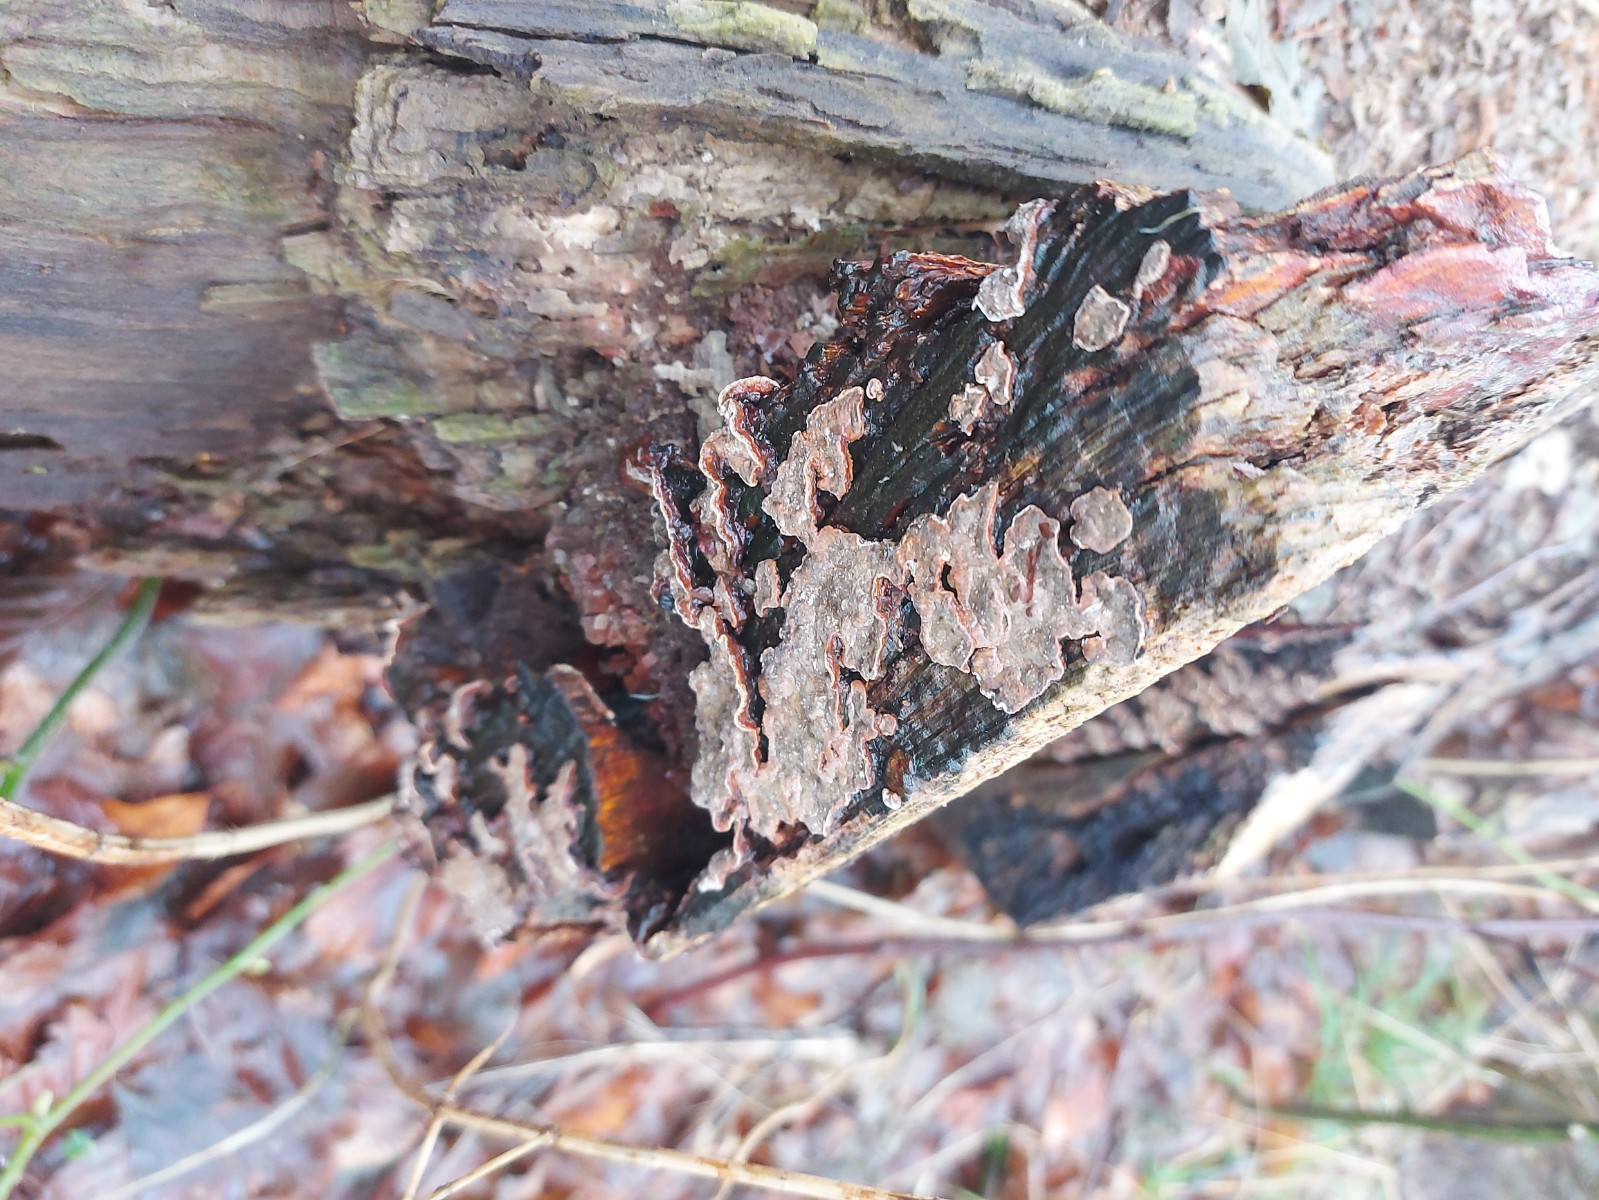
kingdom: Fungi
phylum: Basidiomycota
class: Agaricomycetes
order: Russulales
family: Stereaceae
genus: Stereum
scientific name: Stereum rugosum
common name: rynket lædersvamp
